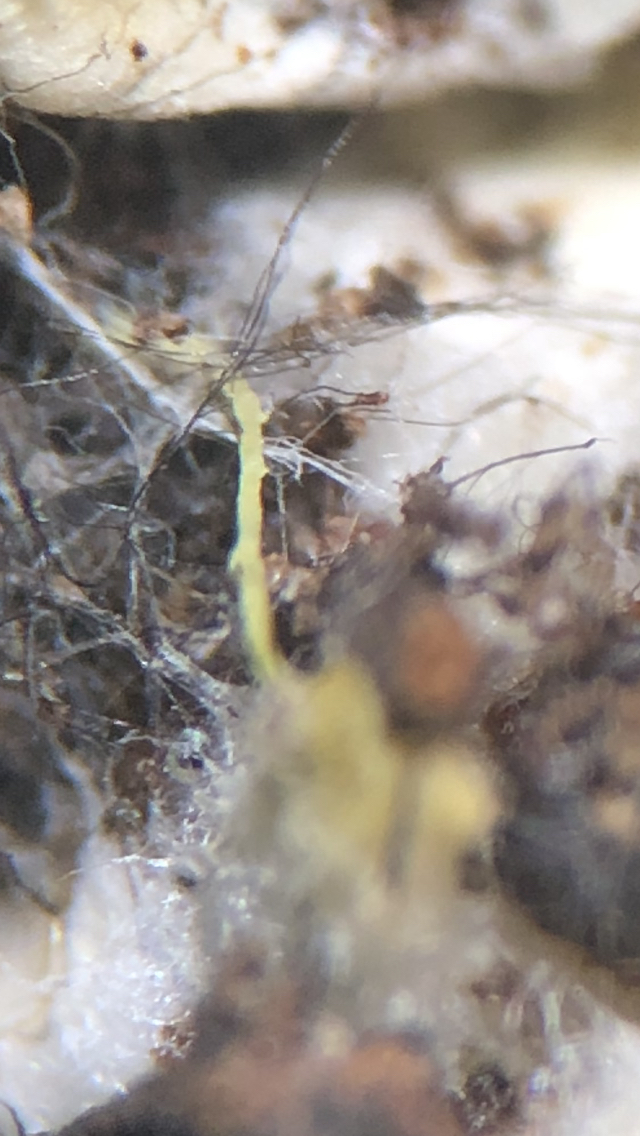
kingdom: Fungi
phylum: Basidiomycota
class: Agaricomycetes
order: Boletales
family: Boletaceae
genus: Xerocomus
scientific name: Xerocomus ferrugineus
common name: vaskeskinds-rørhat
